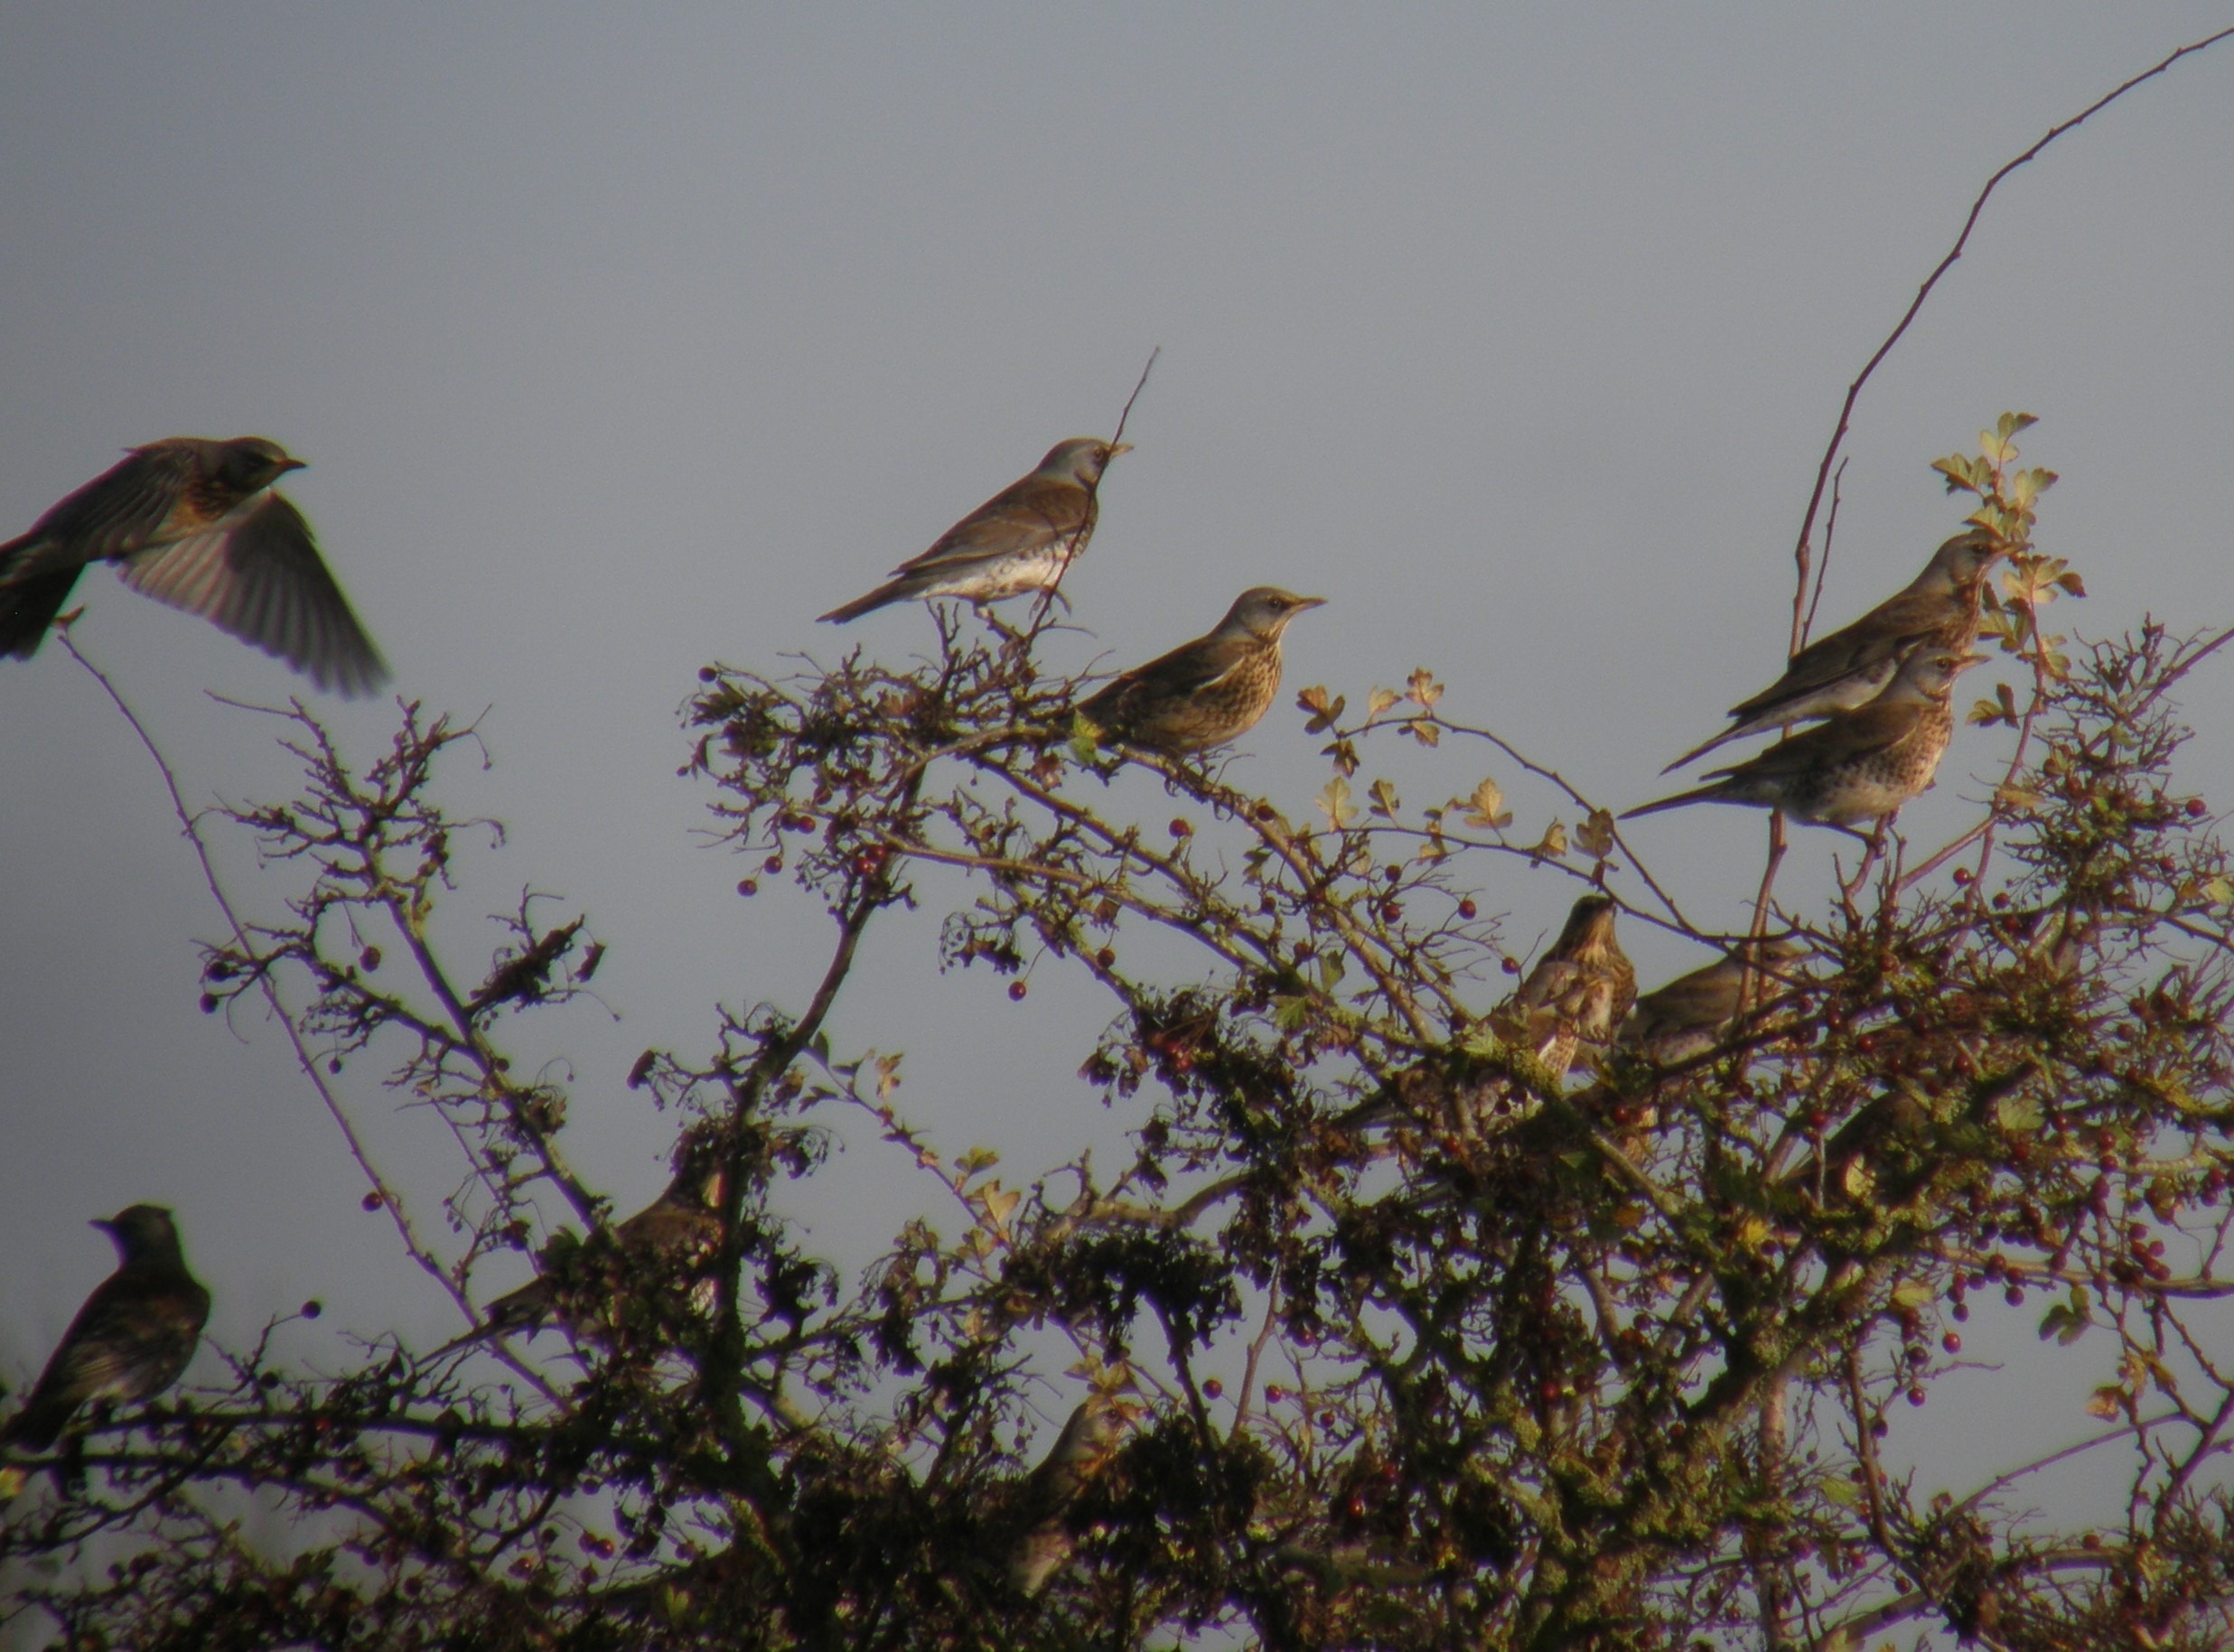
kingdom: Animalia
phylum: Chordata
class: Aves
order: Passeriformes
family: Turdidae
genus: Turdus
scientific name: Turdus pilaris
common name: Sjagger
